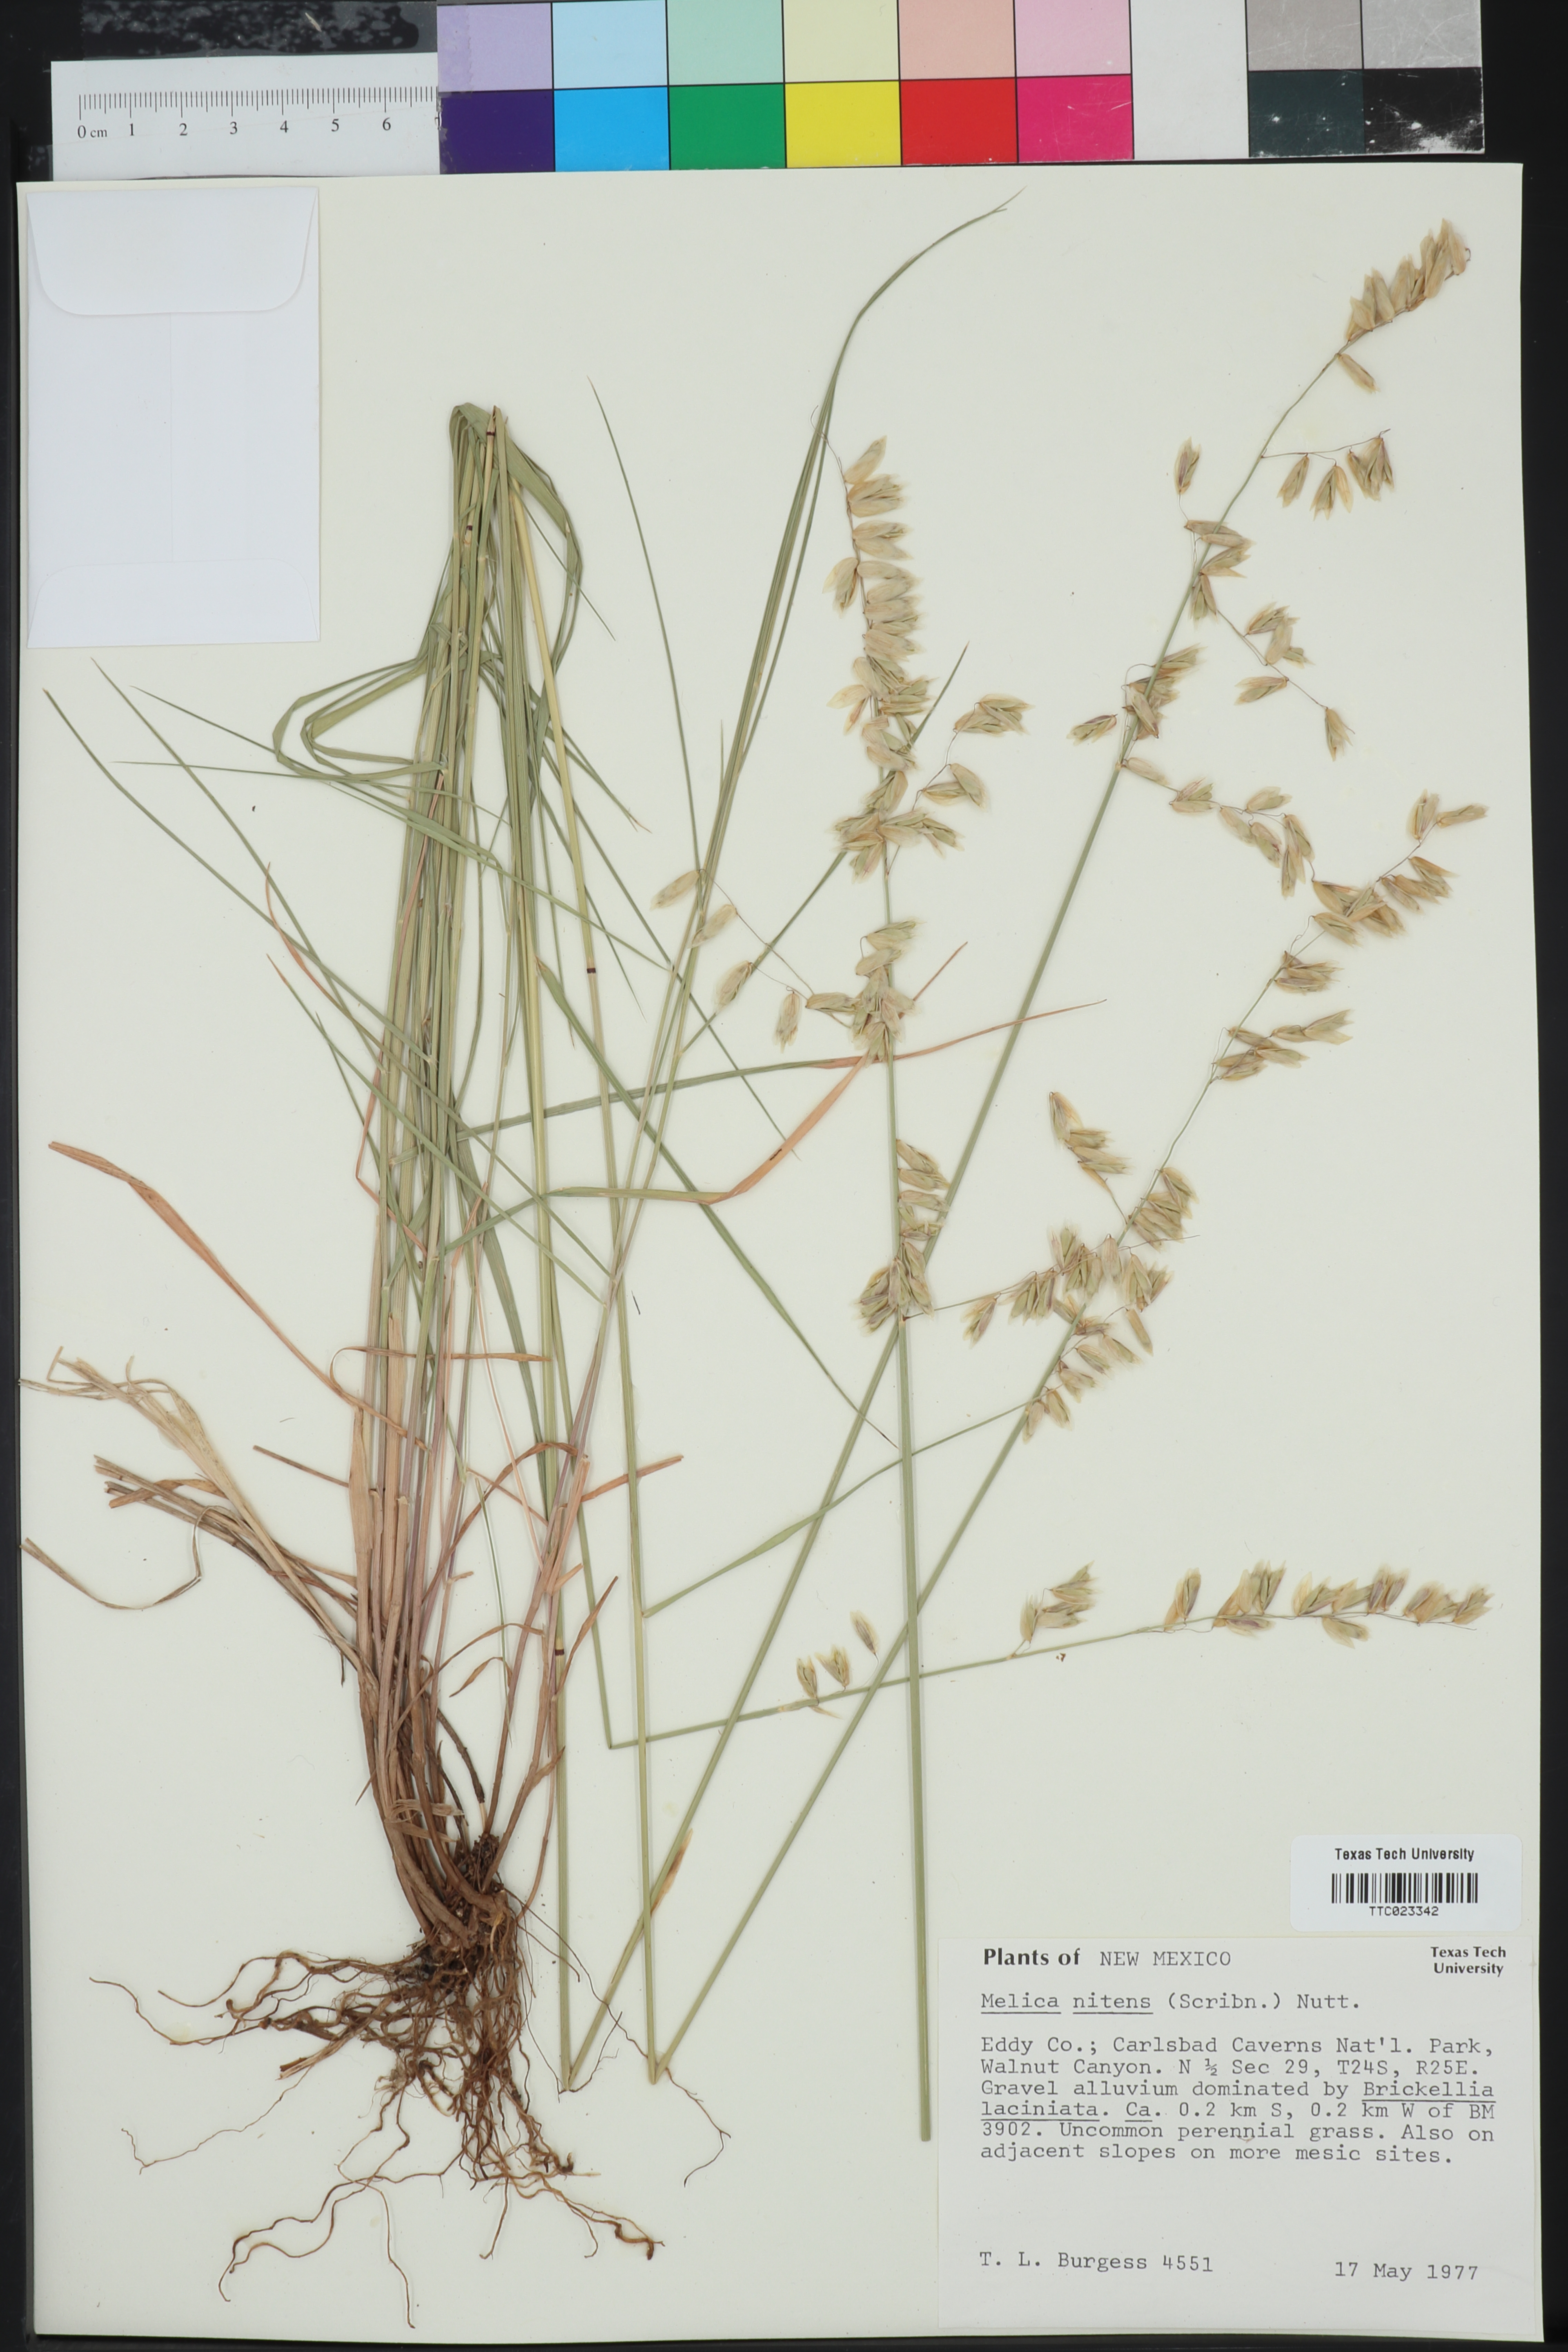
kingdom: Plantae
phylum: Tracheophyta
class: Liliopsida
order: Poales
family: Poaceae
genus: Melica
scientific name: Melica nitens
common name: Three-flower melic
